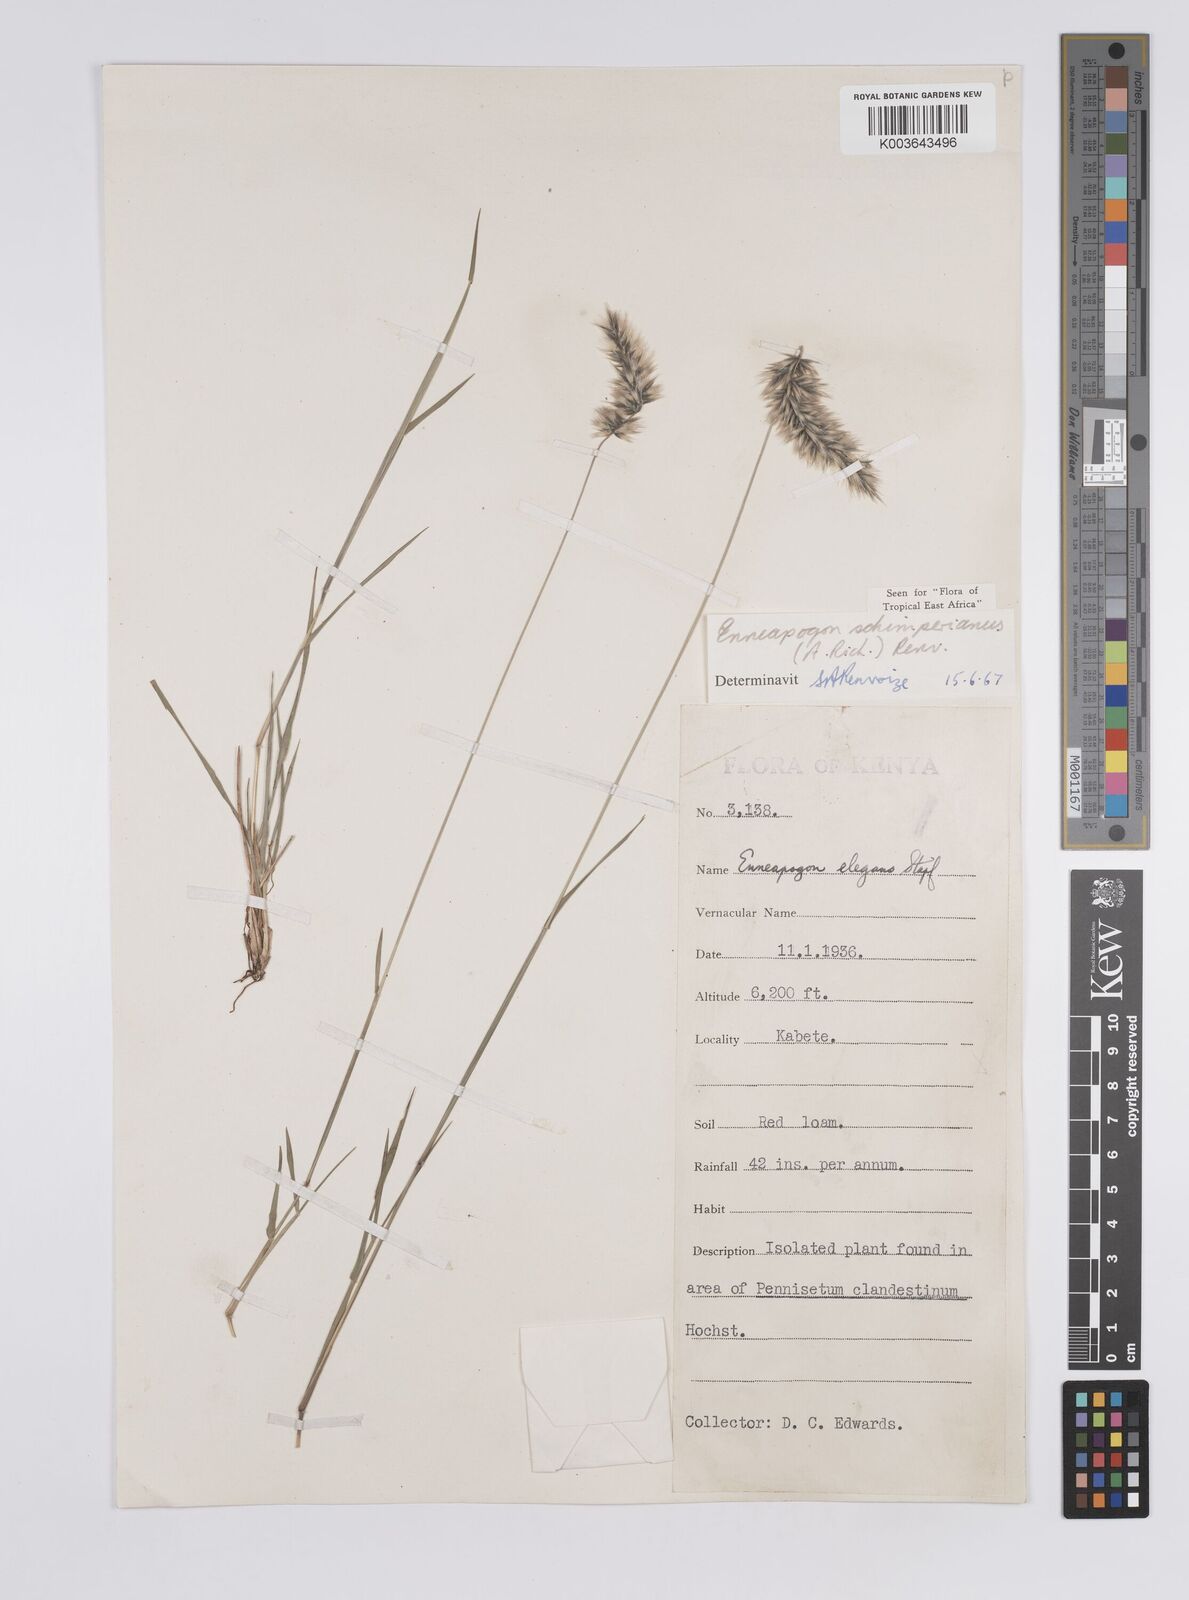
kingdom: Plantae
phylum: Tracheophyta
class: Liliopsida
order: Poales
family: Poaceae
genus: Enneapogon
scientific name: Enneapogon persicus
